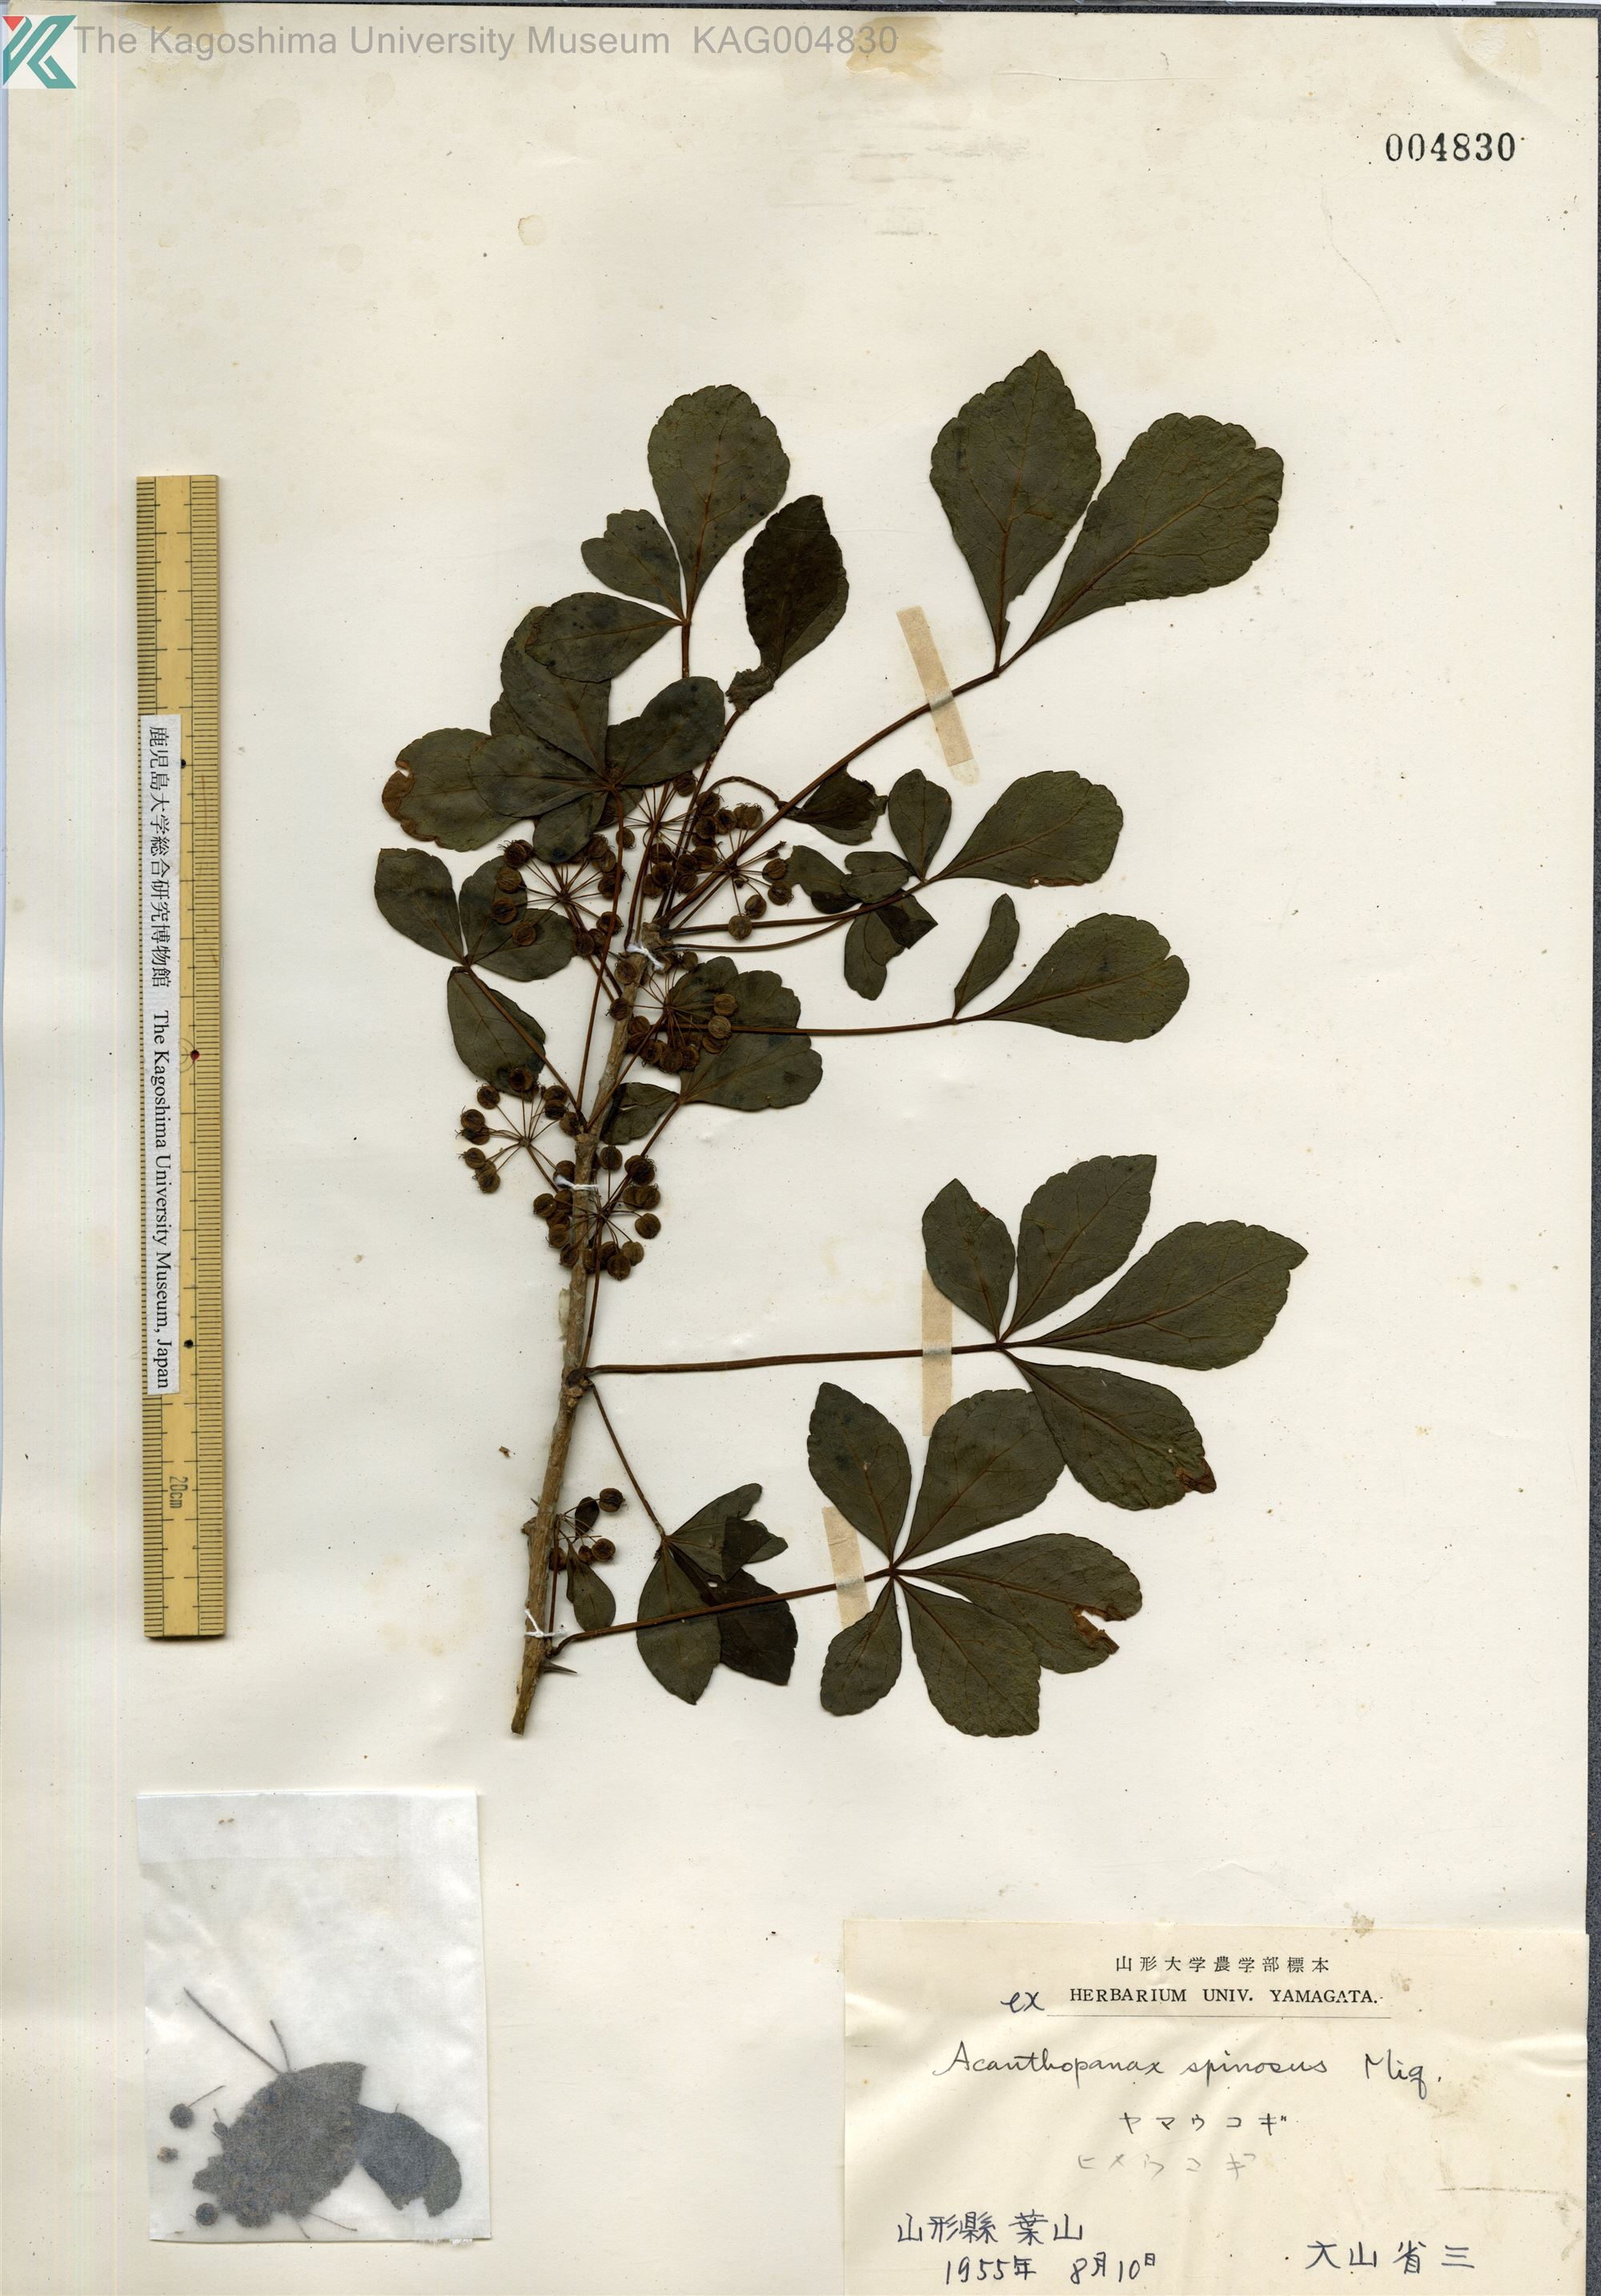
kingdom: Plantae
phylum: Tracheophyta
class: Magnoliopsida
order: Apiales
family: Araliaceae
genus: Eleutherococcus
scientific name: Eleutherococcus nodiflorus
